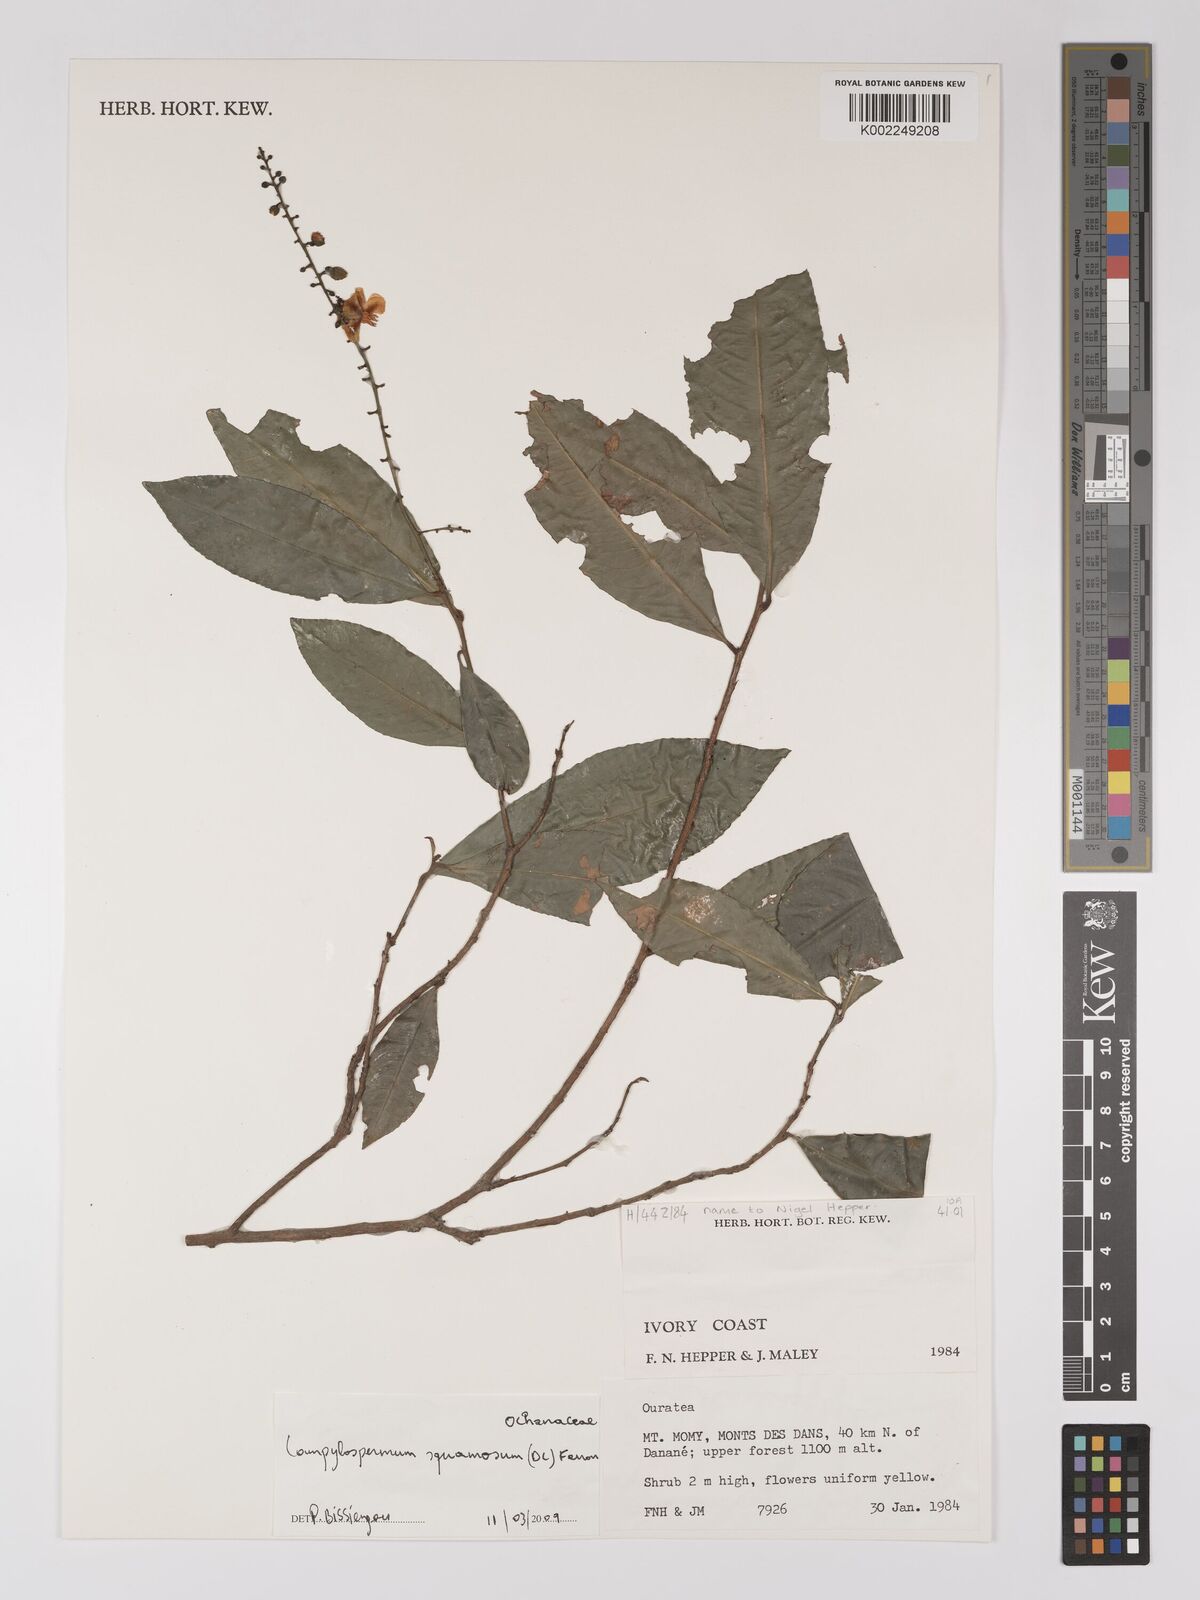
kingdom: Plantae
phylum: Tracheophyta
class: Magnoliopsida
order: Malpighiales
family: Ochnaceae
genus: Campylospermum
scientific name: Campylospermum squamosum
